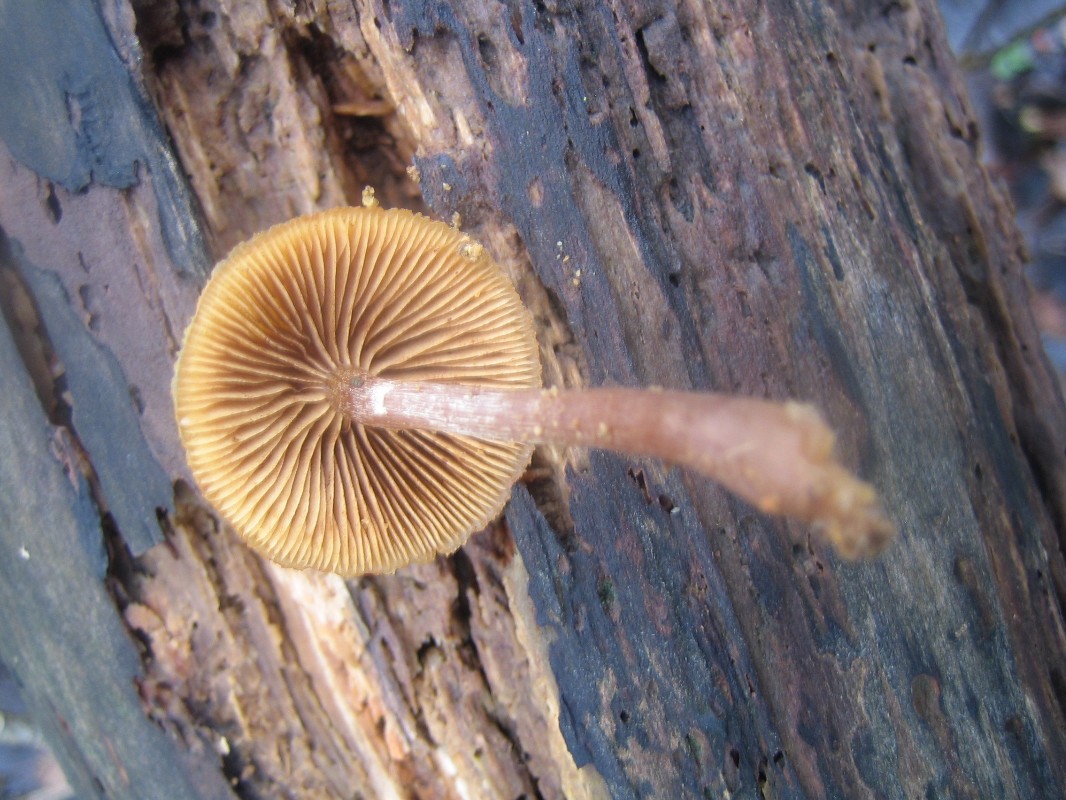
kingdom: Fungi
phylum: Basidiomycota
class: Agaricomycetes
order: Agaricales
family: Hymenogastraceae
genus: Galerina
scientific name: Galerina marginata
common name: randbæltet hjelmhat
